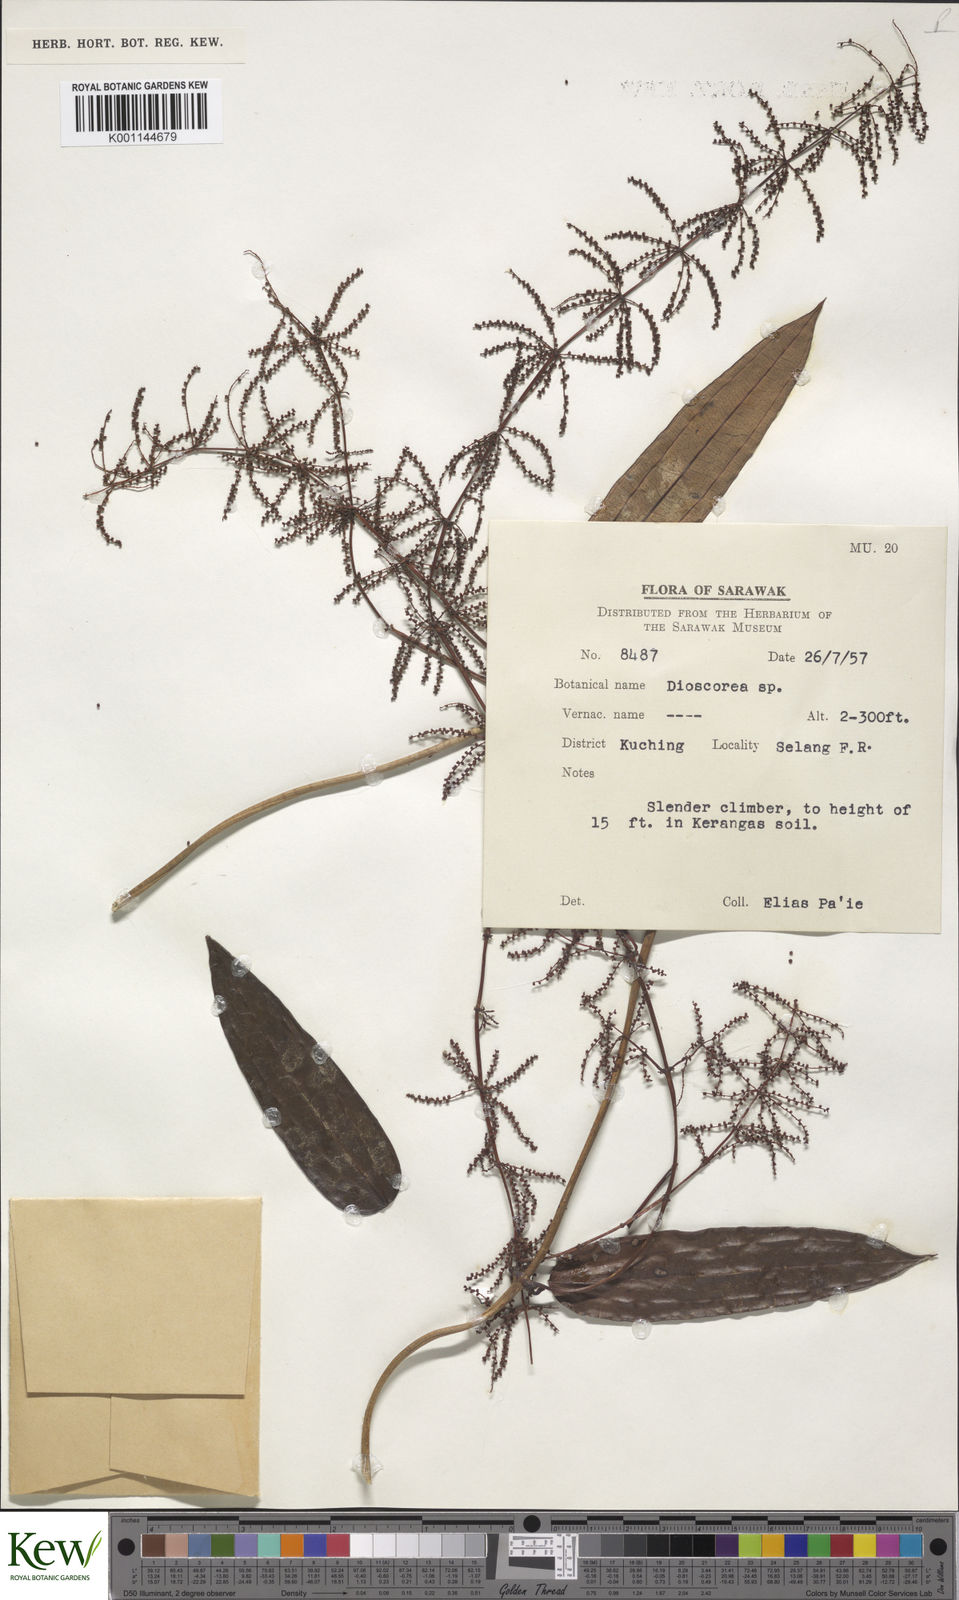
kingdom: Plantae
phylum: Tracheophyta
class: Liliopsida
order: Dioscoreales
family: Dioscoreaceae
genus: Dioscorea
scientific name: Dioscorea
